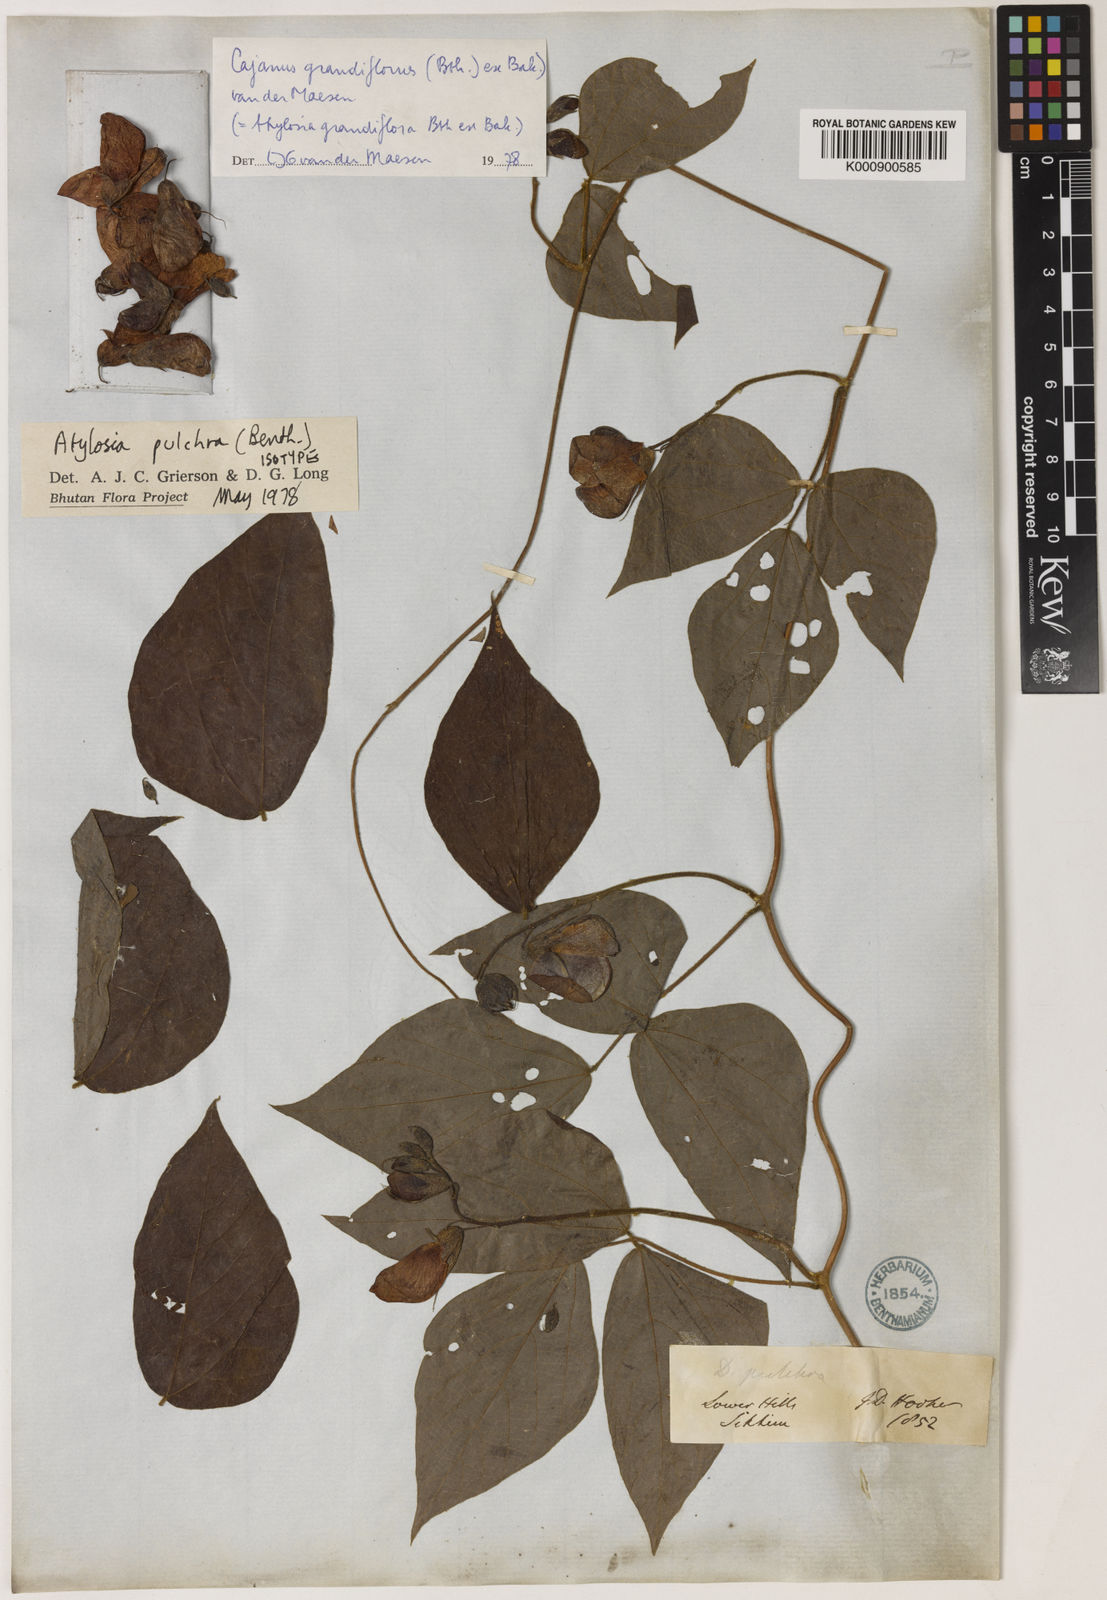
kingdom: Plantae
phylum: Tracheophyta
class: Magnoliopsida
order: Fabales
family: Fabaceae
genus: Cajanus
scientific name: Cajanus grandiflorus
